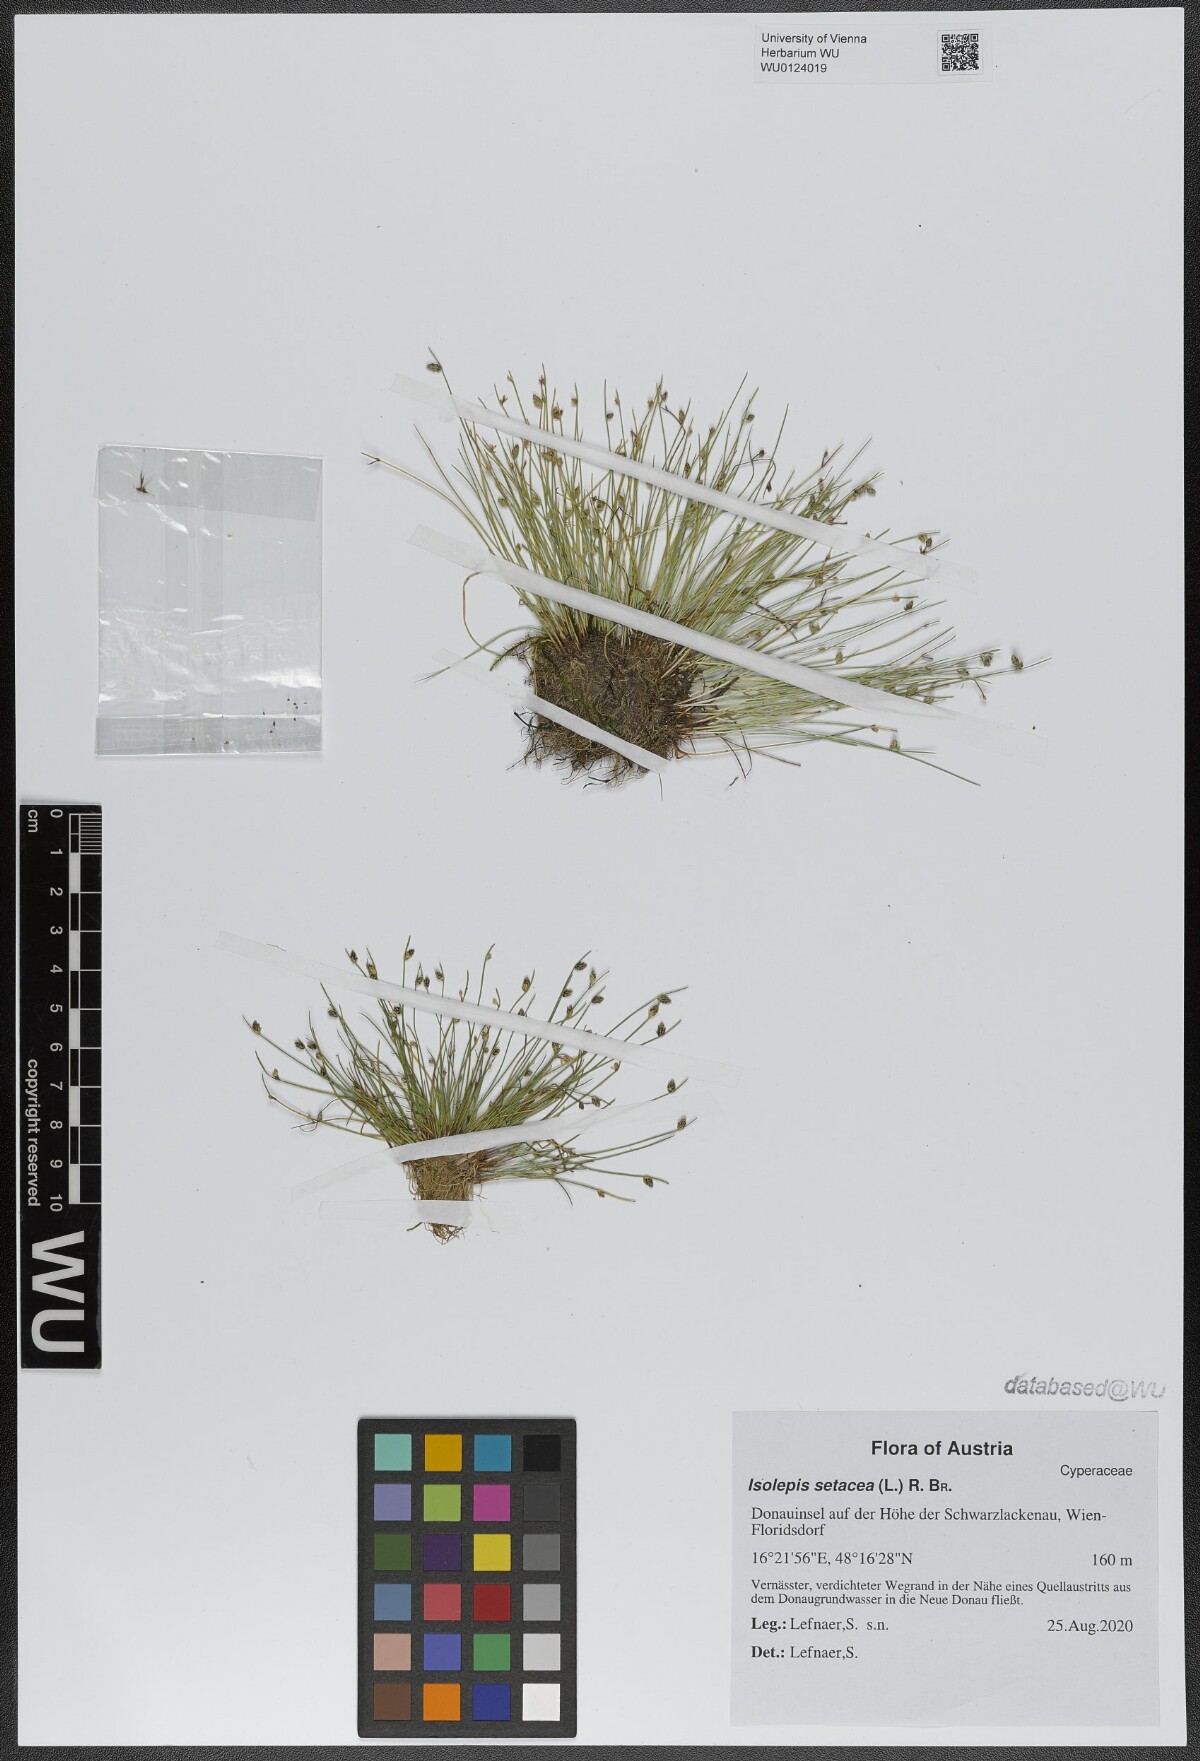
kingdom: Plantae
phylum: Tracheophyta
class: Liliopsida
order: Poales
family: Cyperaceae
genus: Isolepis
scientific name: Isolepis setacea
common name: Bristle club-rush
